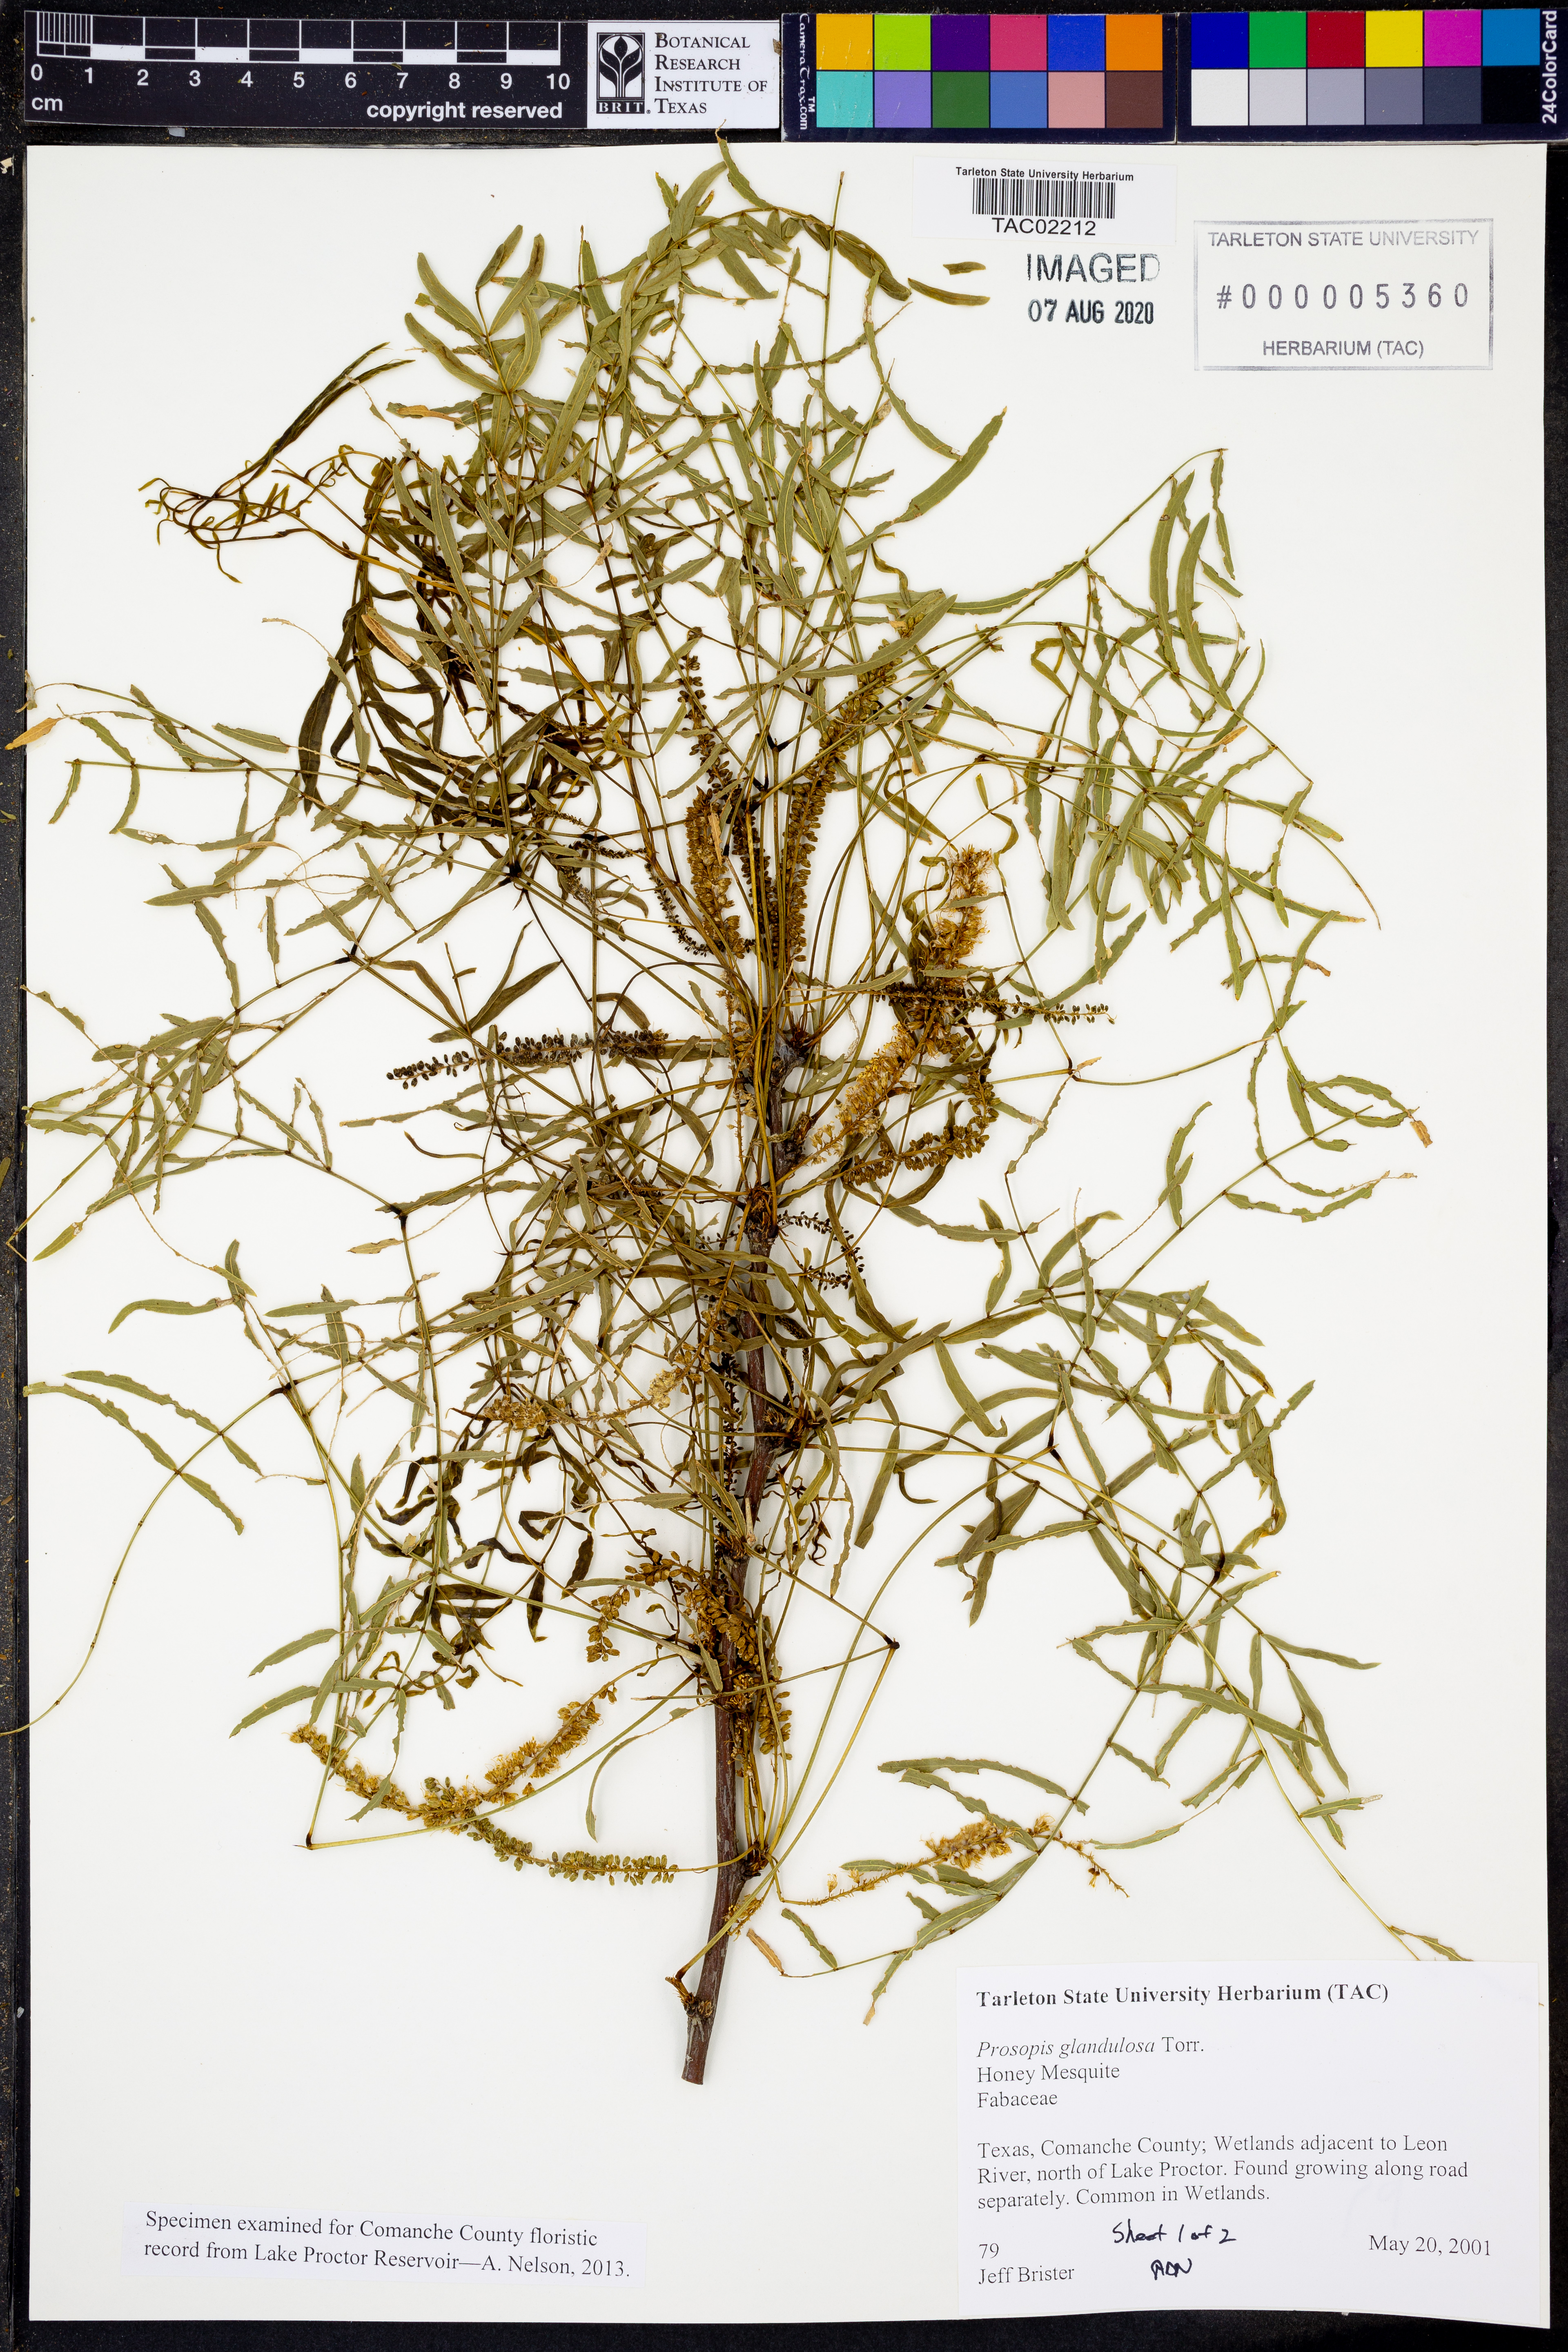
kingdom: Plantae
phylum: Tracheophyta
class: Magnoliopsida
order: Fabales
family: Fabaceae
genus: Prosopis
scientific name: Prosopis glandulosa
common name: Honey mesquite
